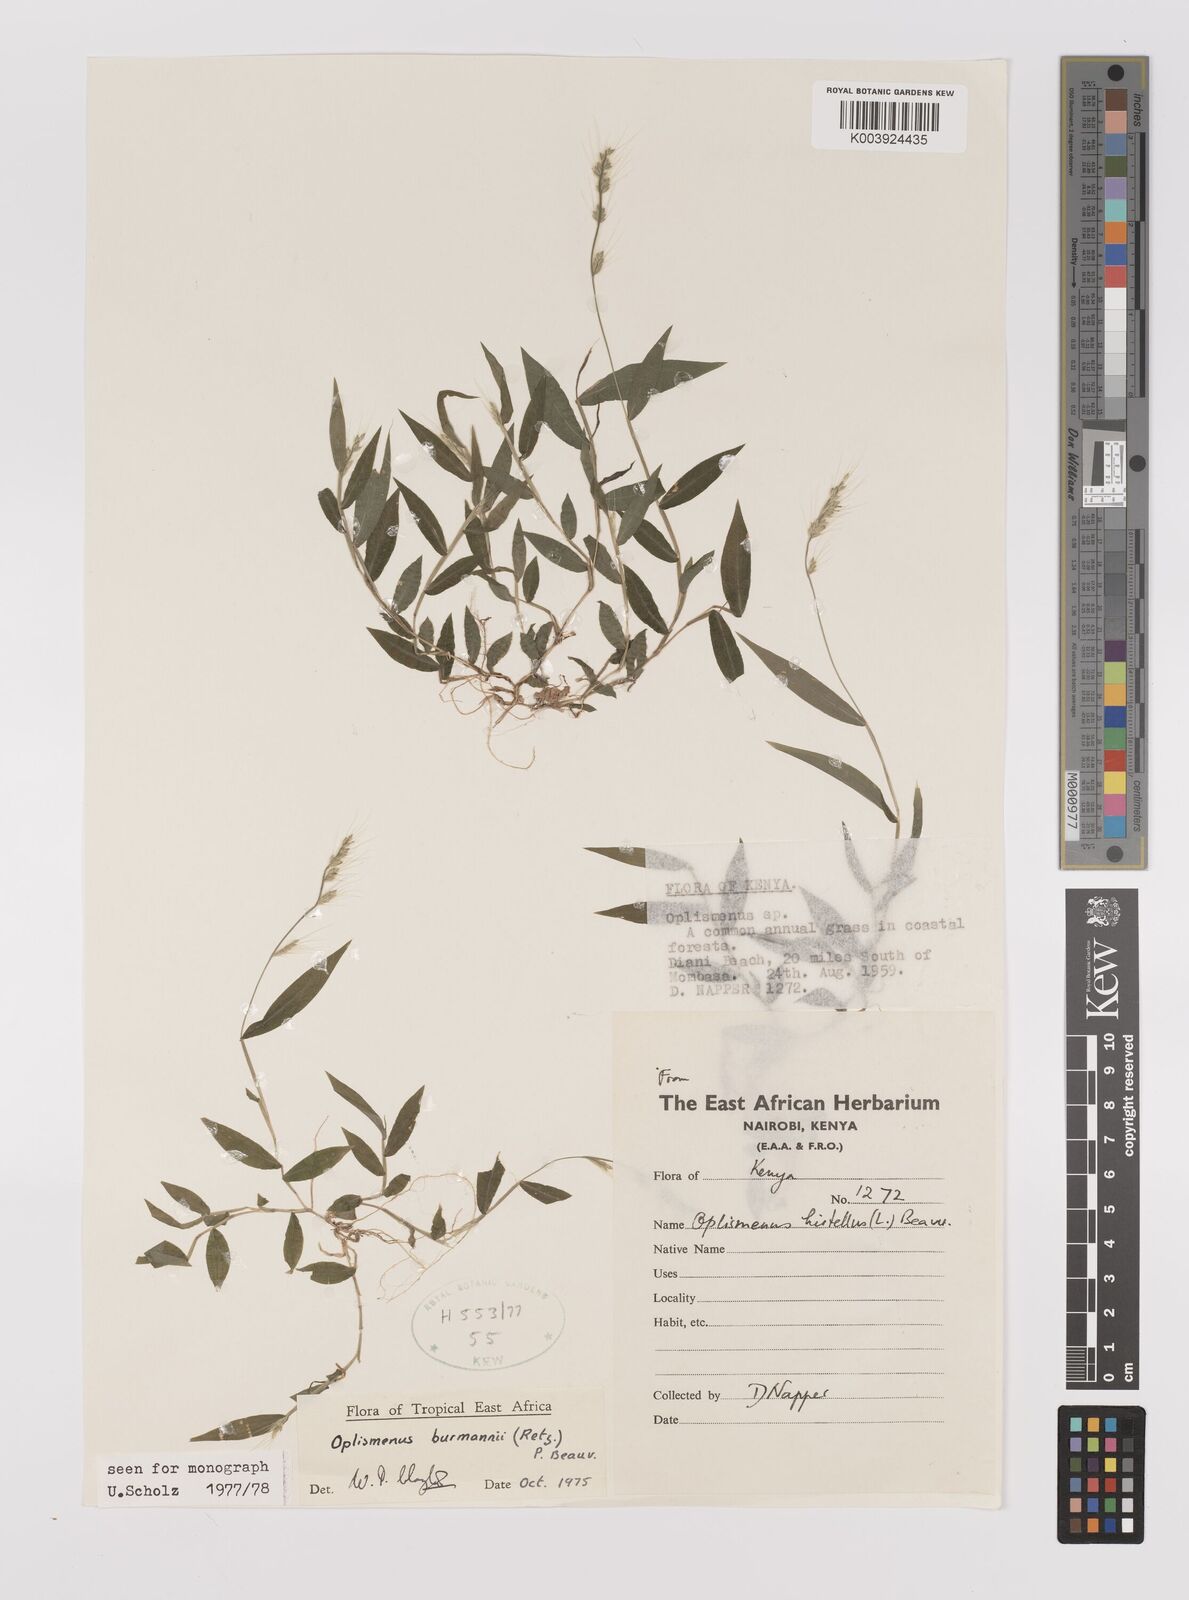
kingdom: Plantae
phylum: Tracheophyta
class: Liliopsida
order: Poales
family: Poaceae
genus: Oplismenus
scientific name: Oplismenus burmanni
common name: Burmann's basketgrass
